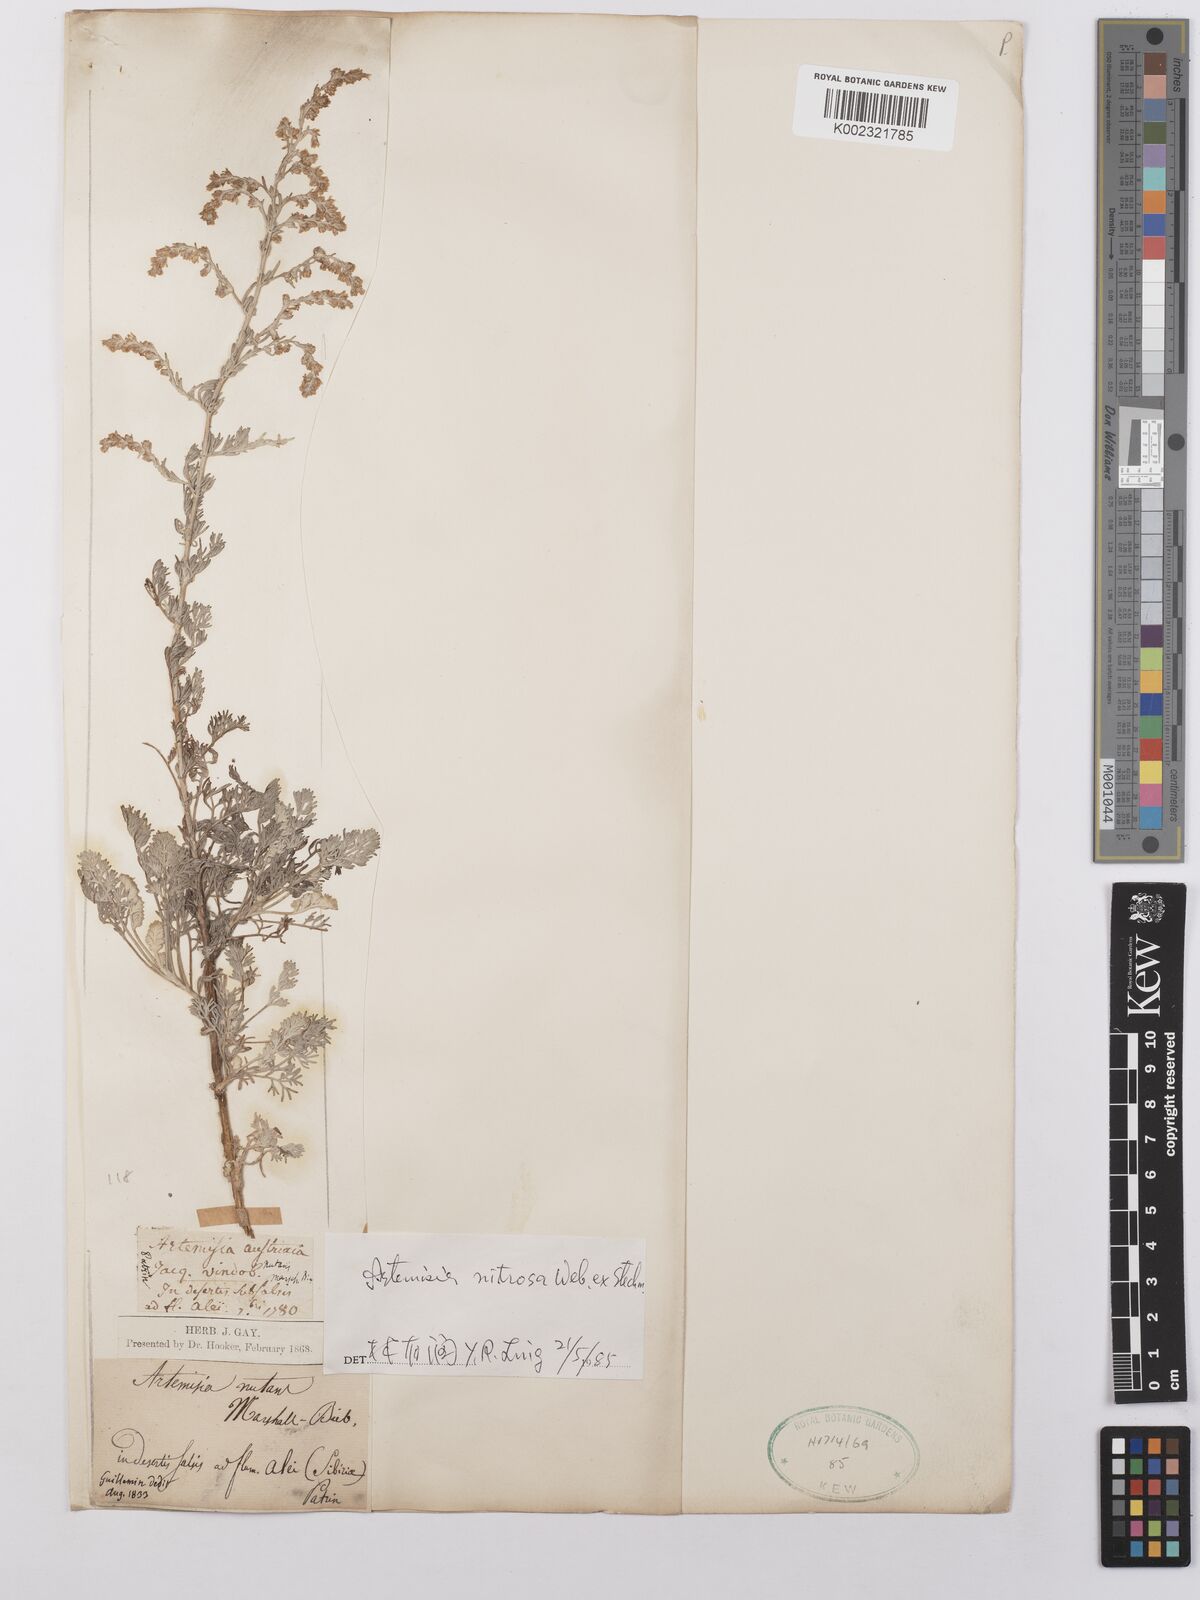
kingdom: Plantae
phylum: Tracheophyta
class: Magnoliopsida
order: Asterales
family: Asteraceae
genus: Artemisia
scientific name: Artemisia nitrosa
